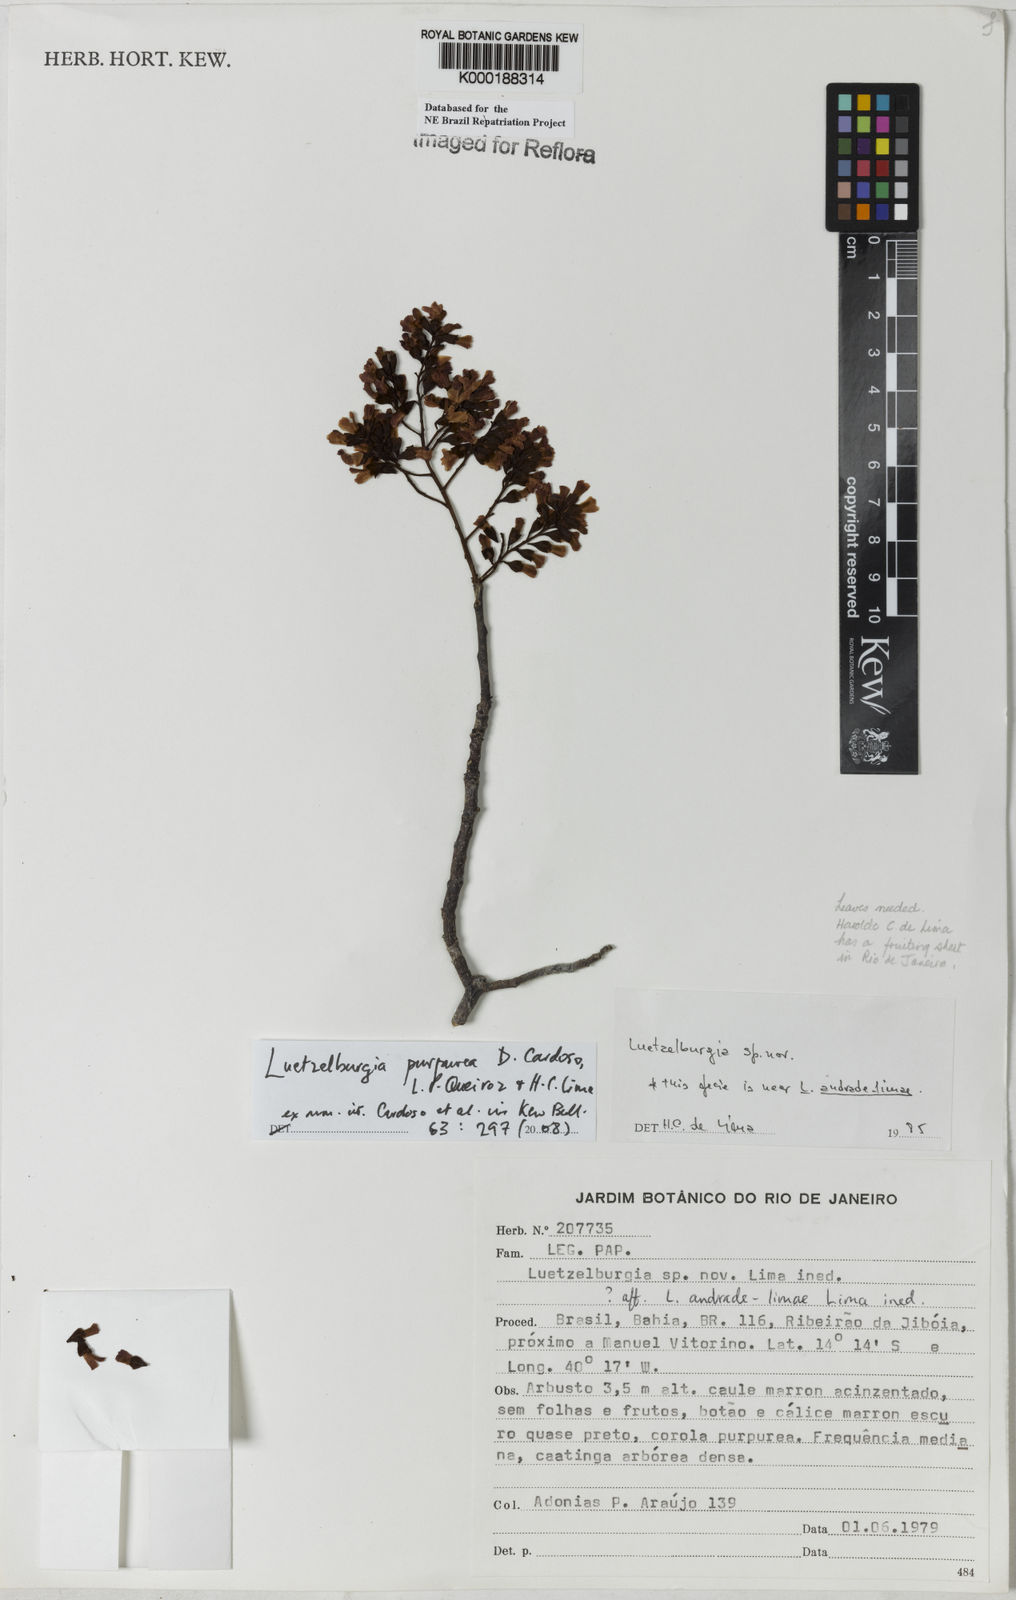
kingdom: Plantae
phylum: Tracheophyta
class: Magnoliopsida
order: Fabales
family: Fabaceae
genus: Luetzelburgia
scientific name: Luetzelburgia auriculata
